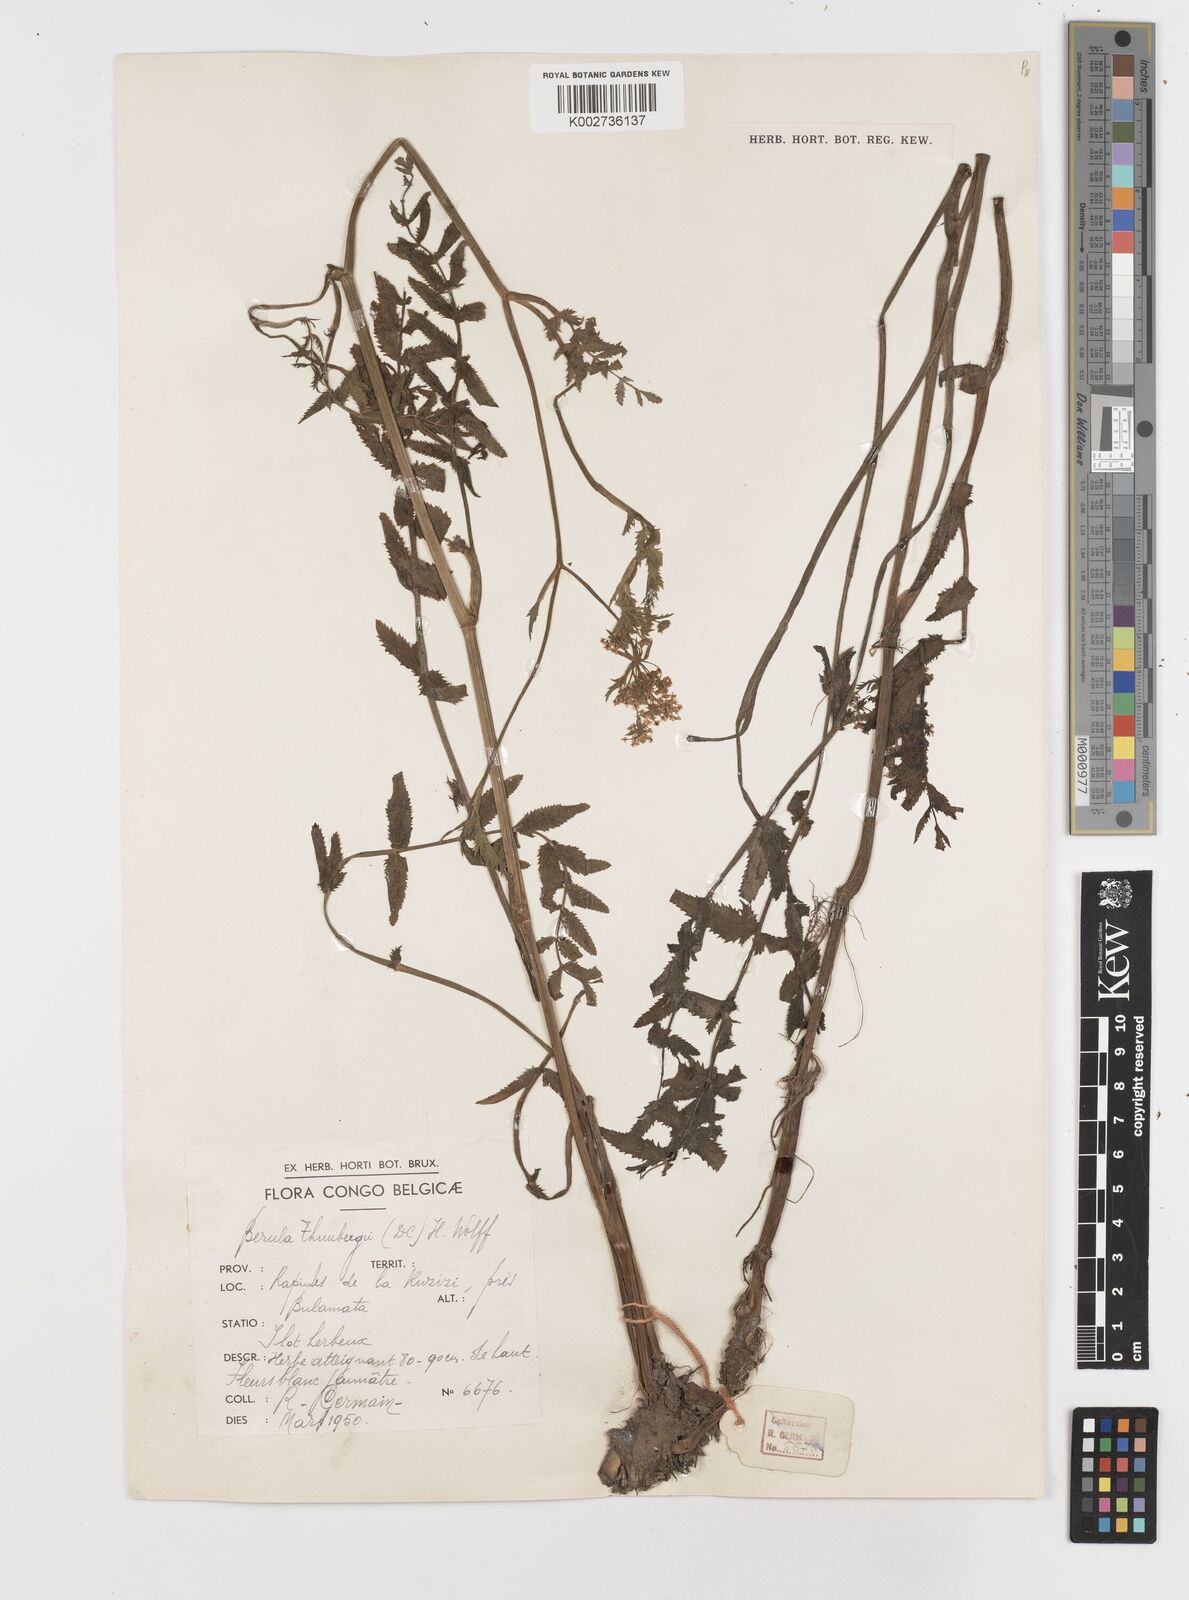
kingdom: Plantae
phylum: Tracheophyta
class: Magnoliopsida
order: Apiales
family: Apiaceae
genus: Berula
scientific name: Berula erecta
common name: Lesser water-parsnip
